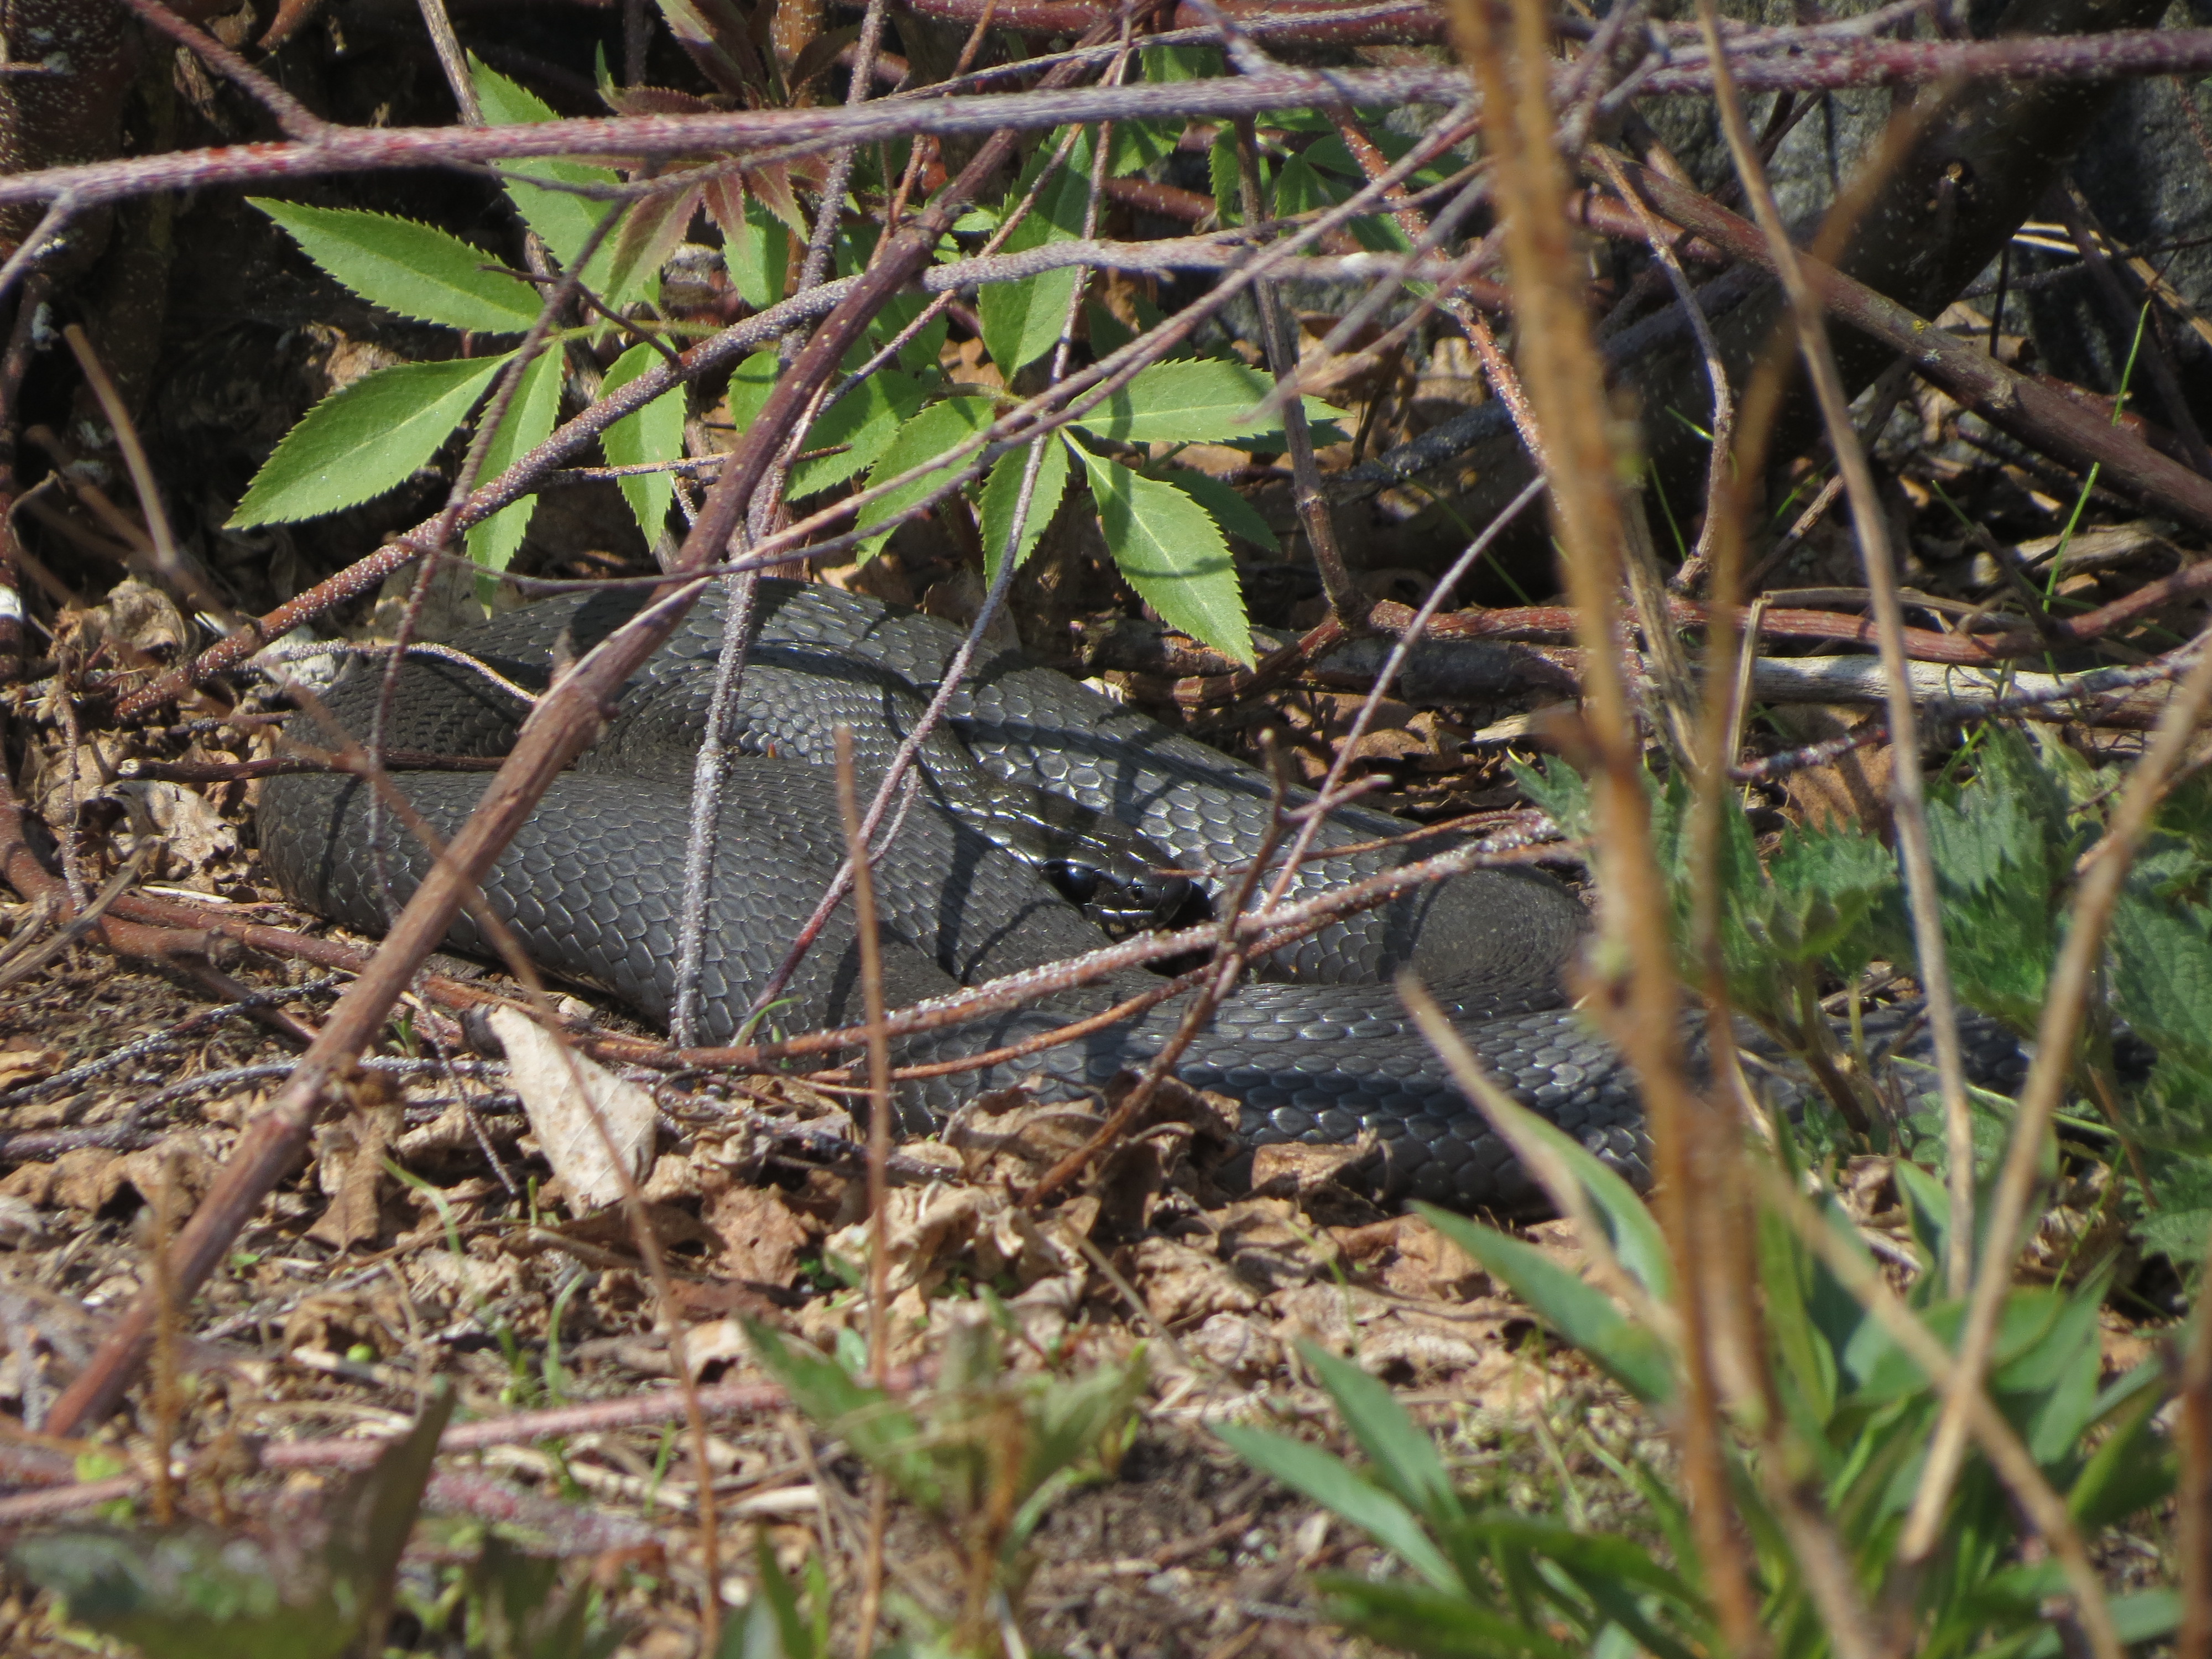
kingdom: Animalia
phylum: Chordata
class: Squamata
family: Colubridae
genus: Natrix
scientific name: Natrix natrix
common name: Grass snake
